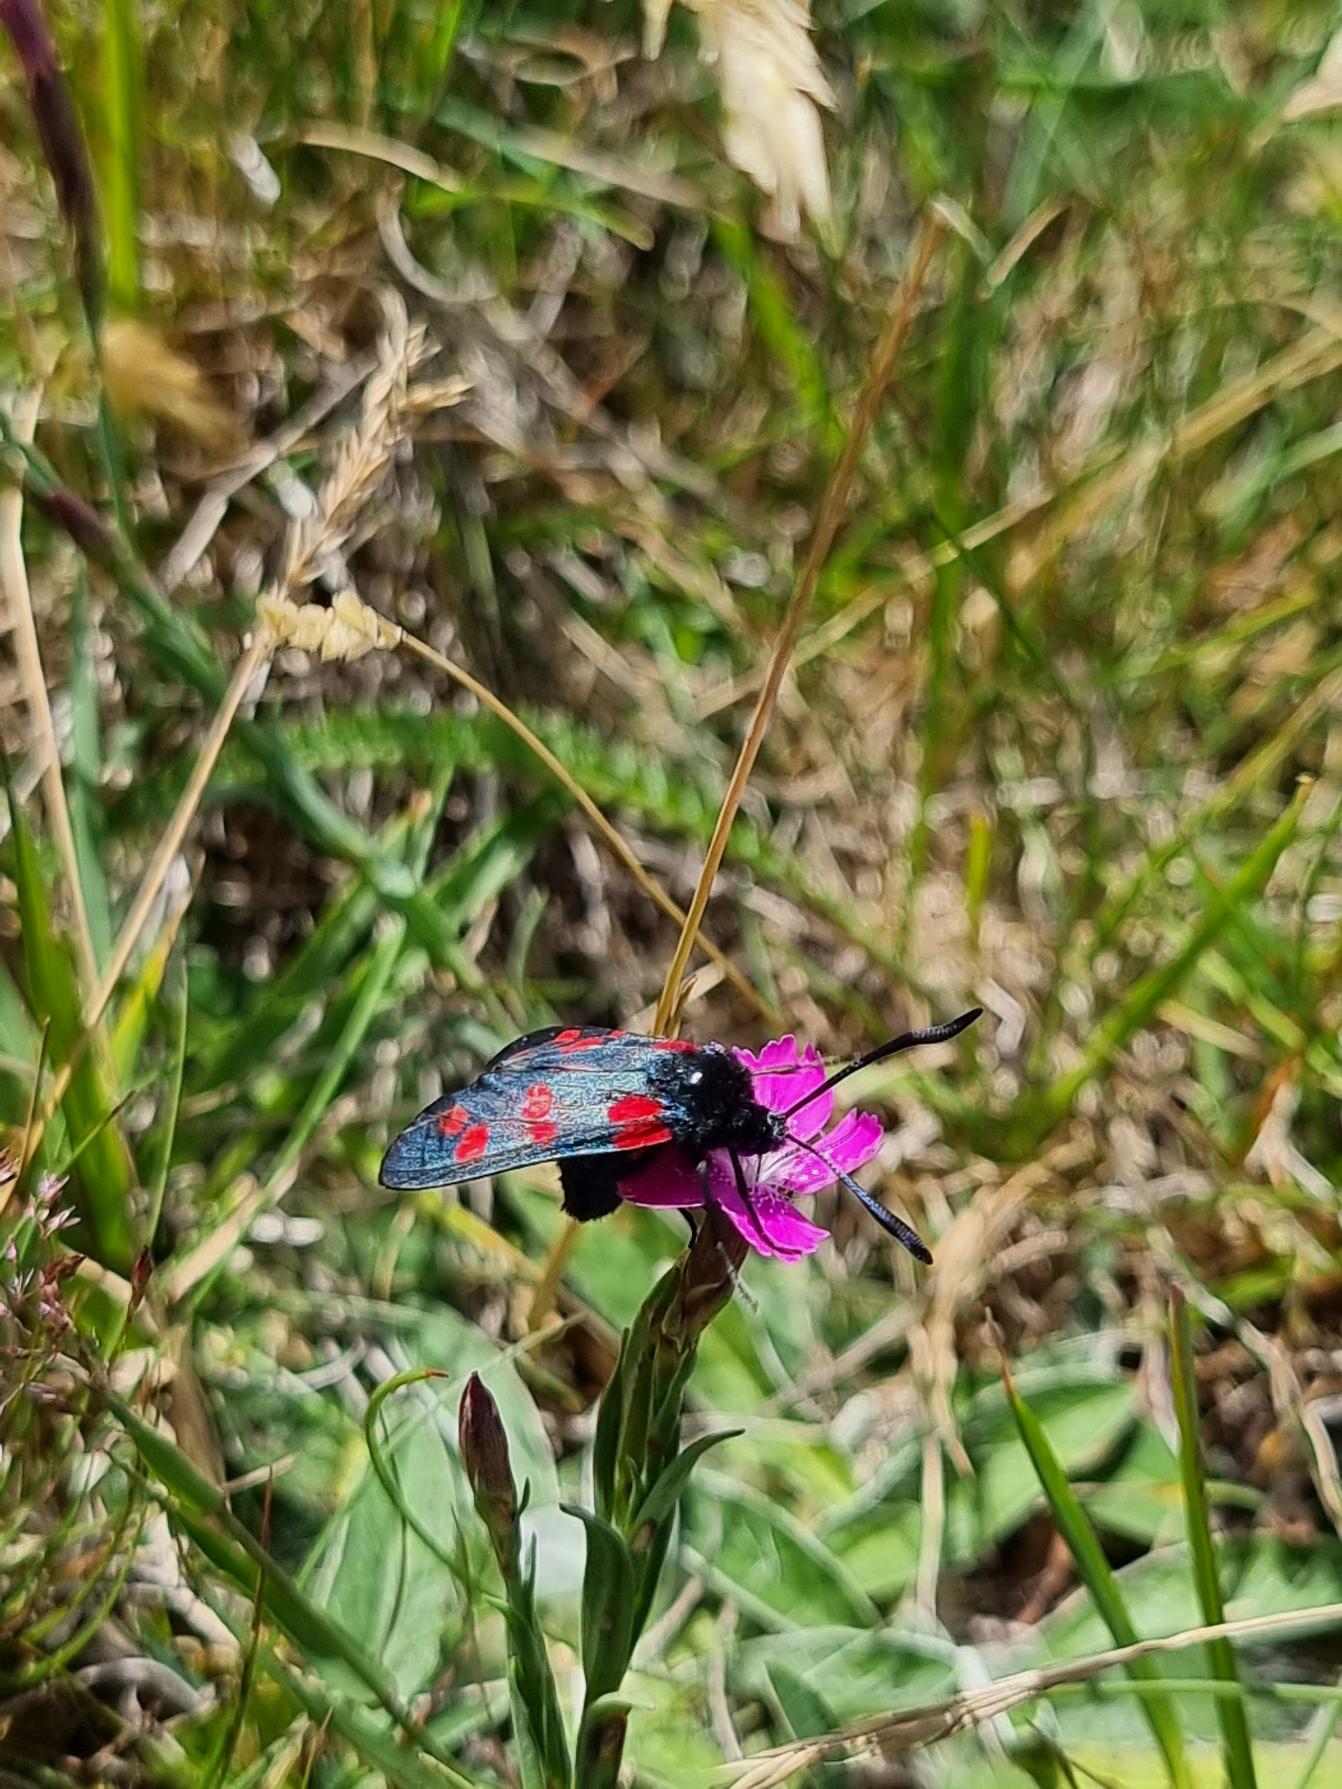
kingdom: Animalia
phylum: Arthropoda
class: Insecta
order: Lepidoptera
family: Zygaenidae
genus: Zygaena
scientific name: Zygaena filipendulae
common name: Seksplettet køllesværmer
